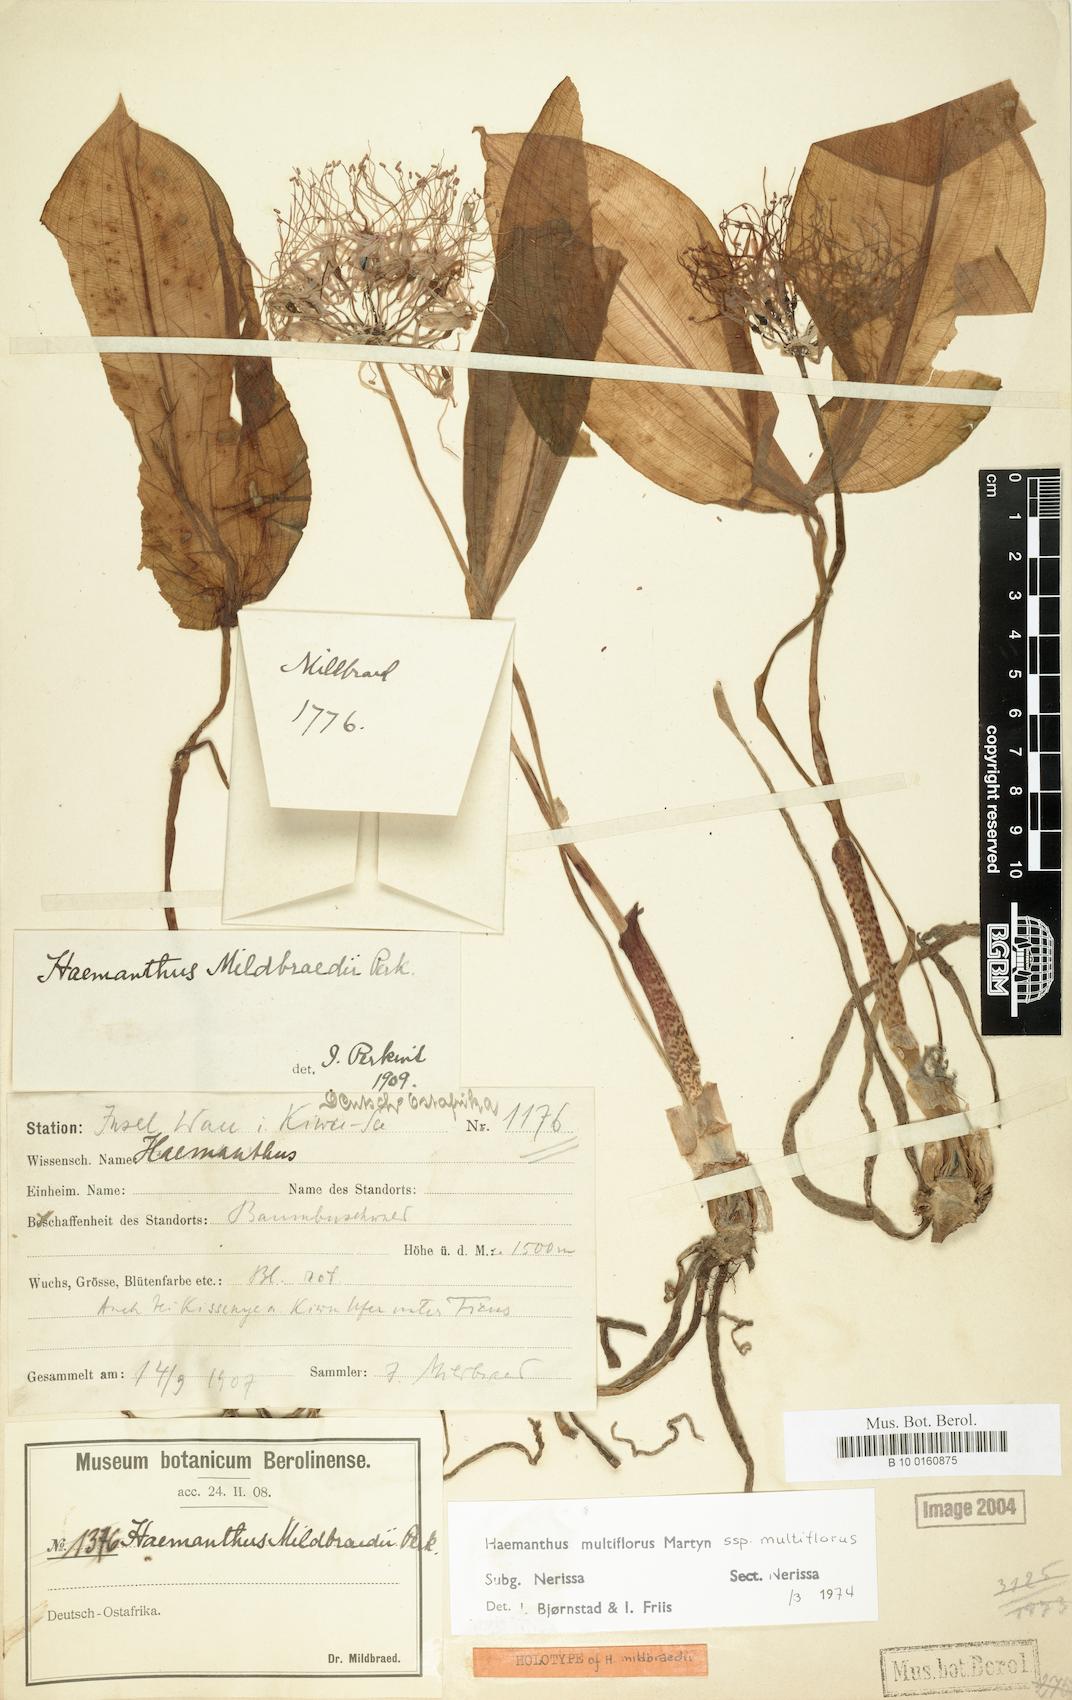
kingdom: Plantae
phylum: Tracheophyta
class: Liliopsida
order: Asparagales
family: Amaryllidaceae
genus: Scadoxus
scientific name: Scadoxus multiflorus
